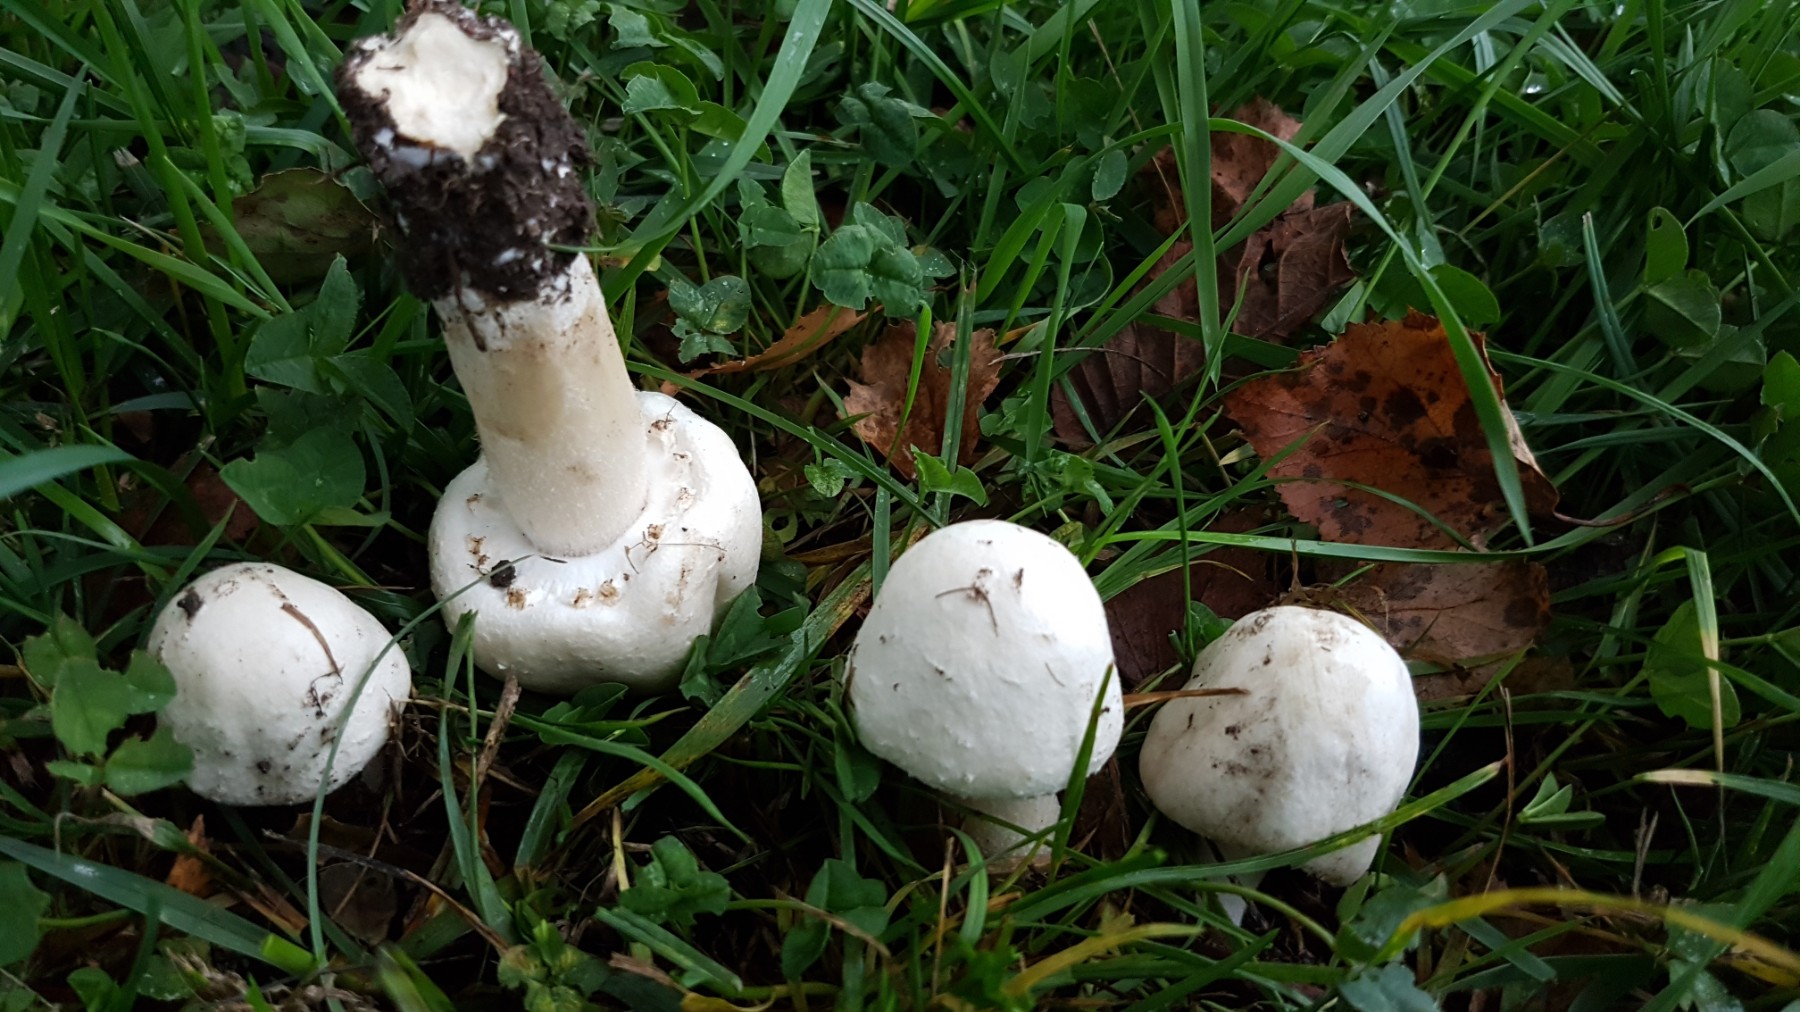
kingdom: Fungi
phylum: Basidiomycota
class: Agaricomycetes
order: Agaricales
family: Agaricaceae
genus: Agaricus
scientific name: Agaricus
